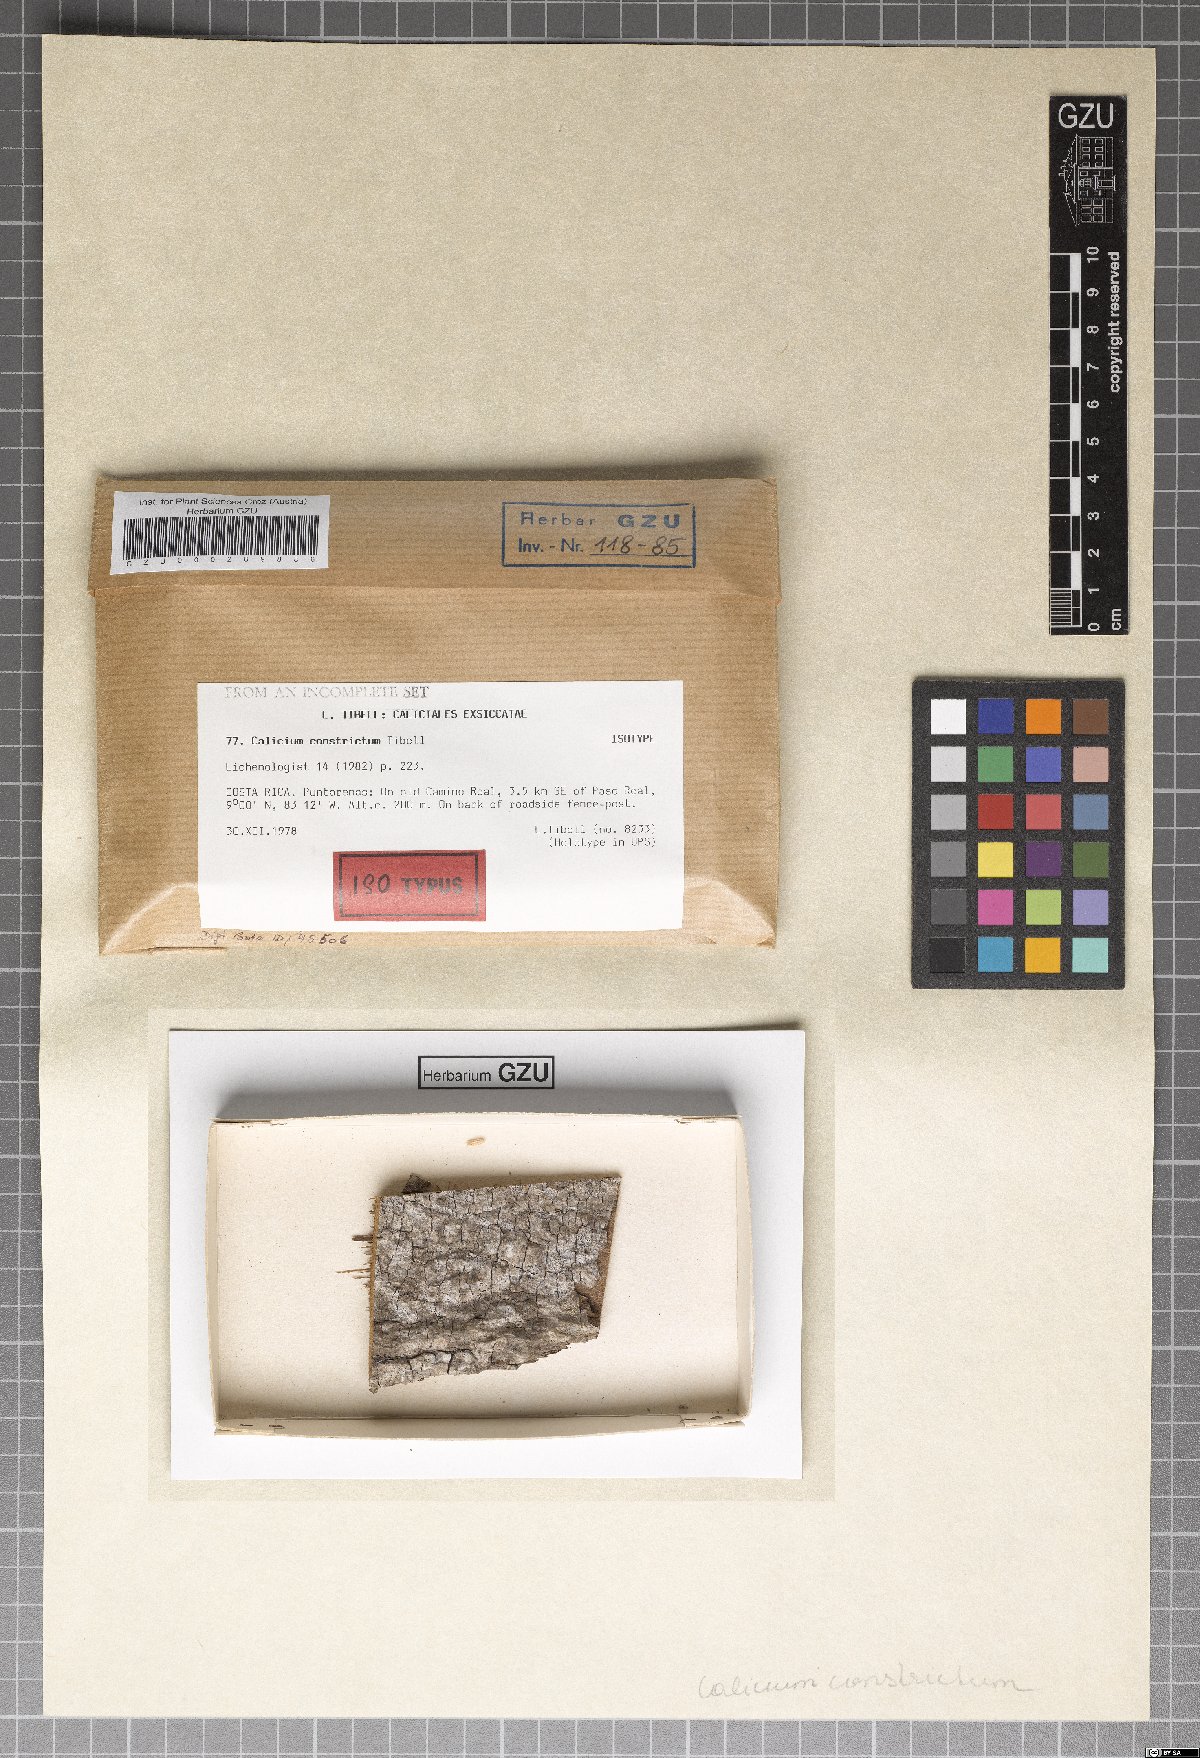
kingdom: Fungi
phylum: Ascomycota
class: Lecanoromycetes
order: Caliciales
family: Caliciaceae
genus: Calicium
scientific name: Calicium constrictum
